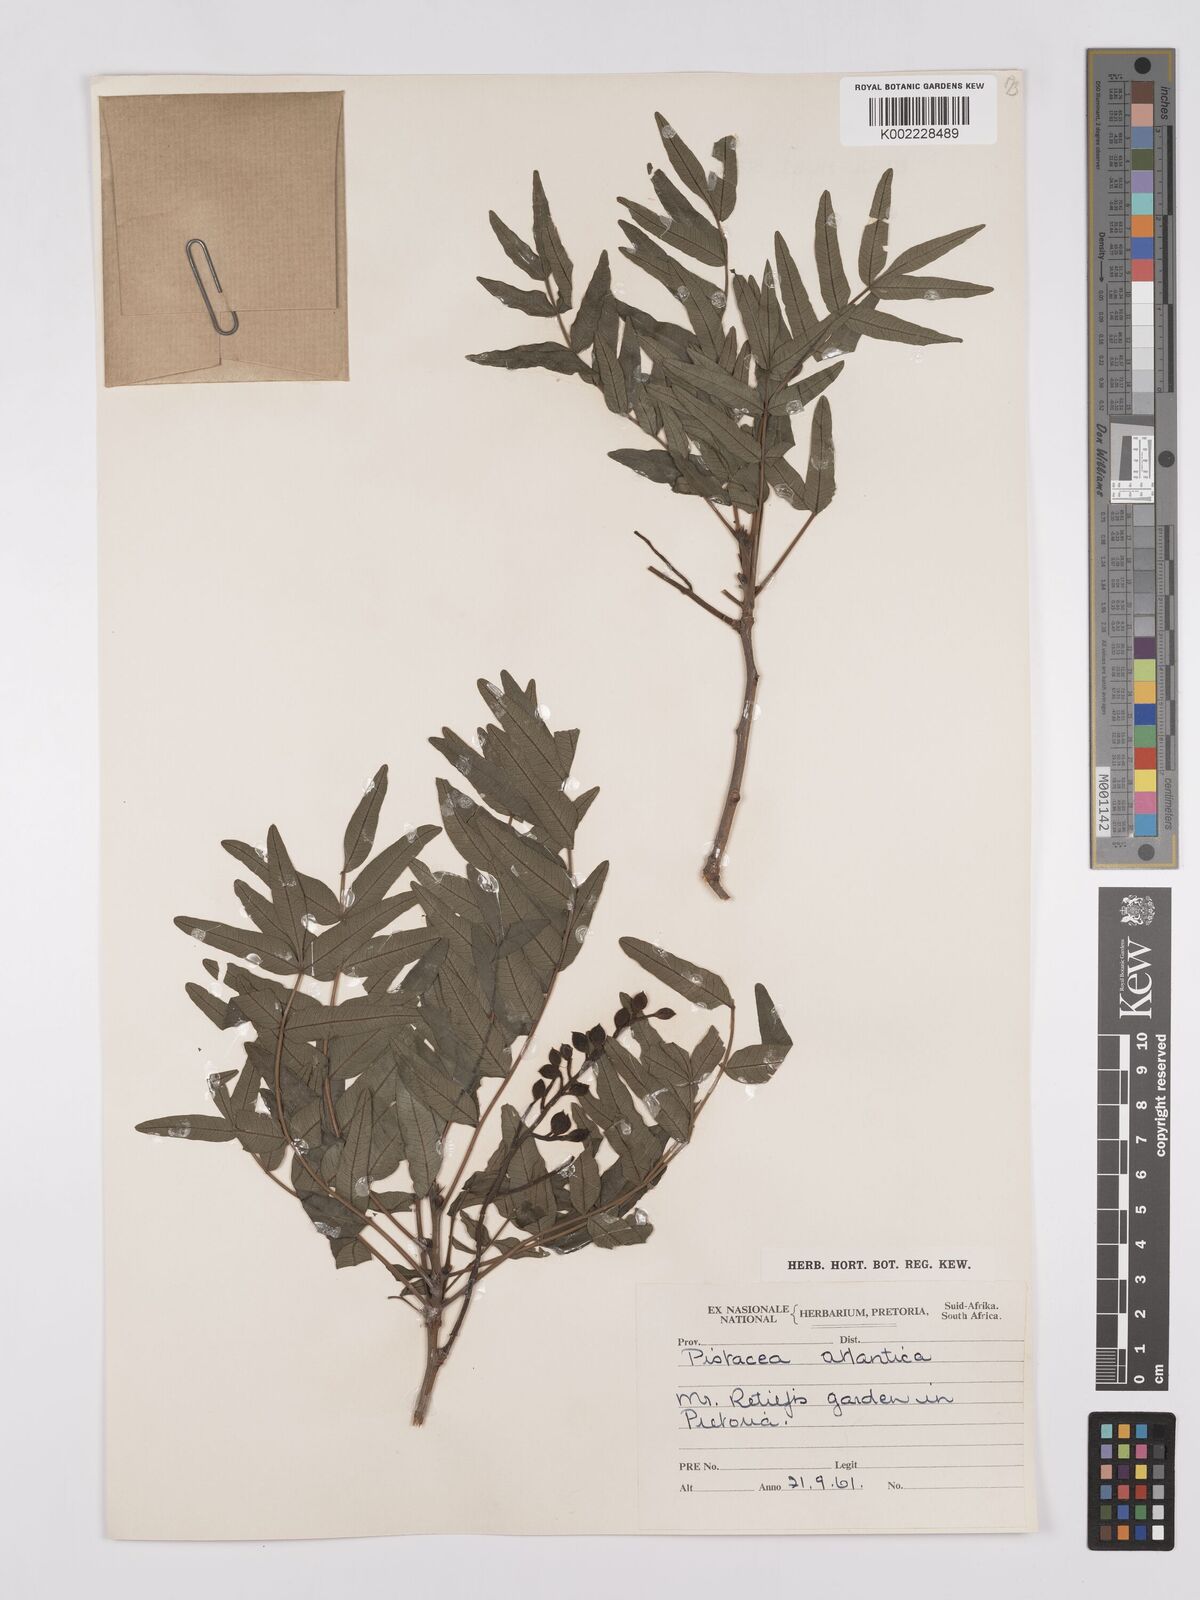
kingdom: Plantae
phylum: Tracheophyta
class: Magnoliopsida
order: Sapindales
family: Anacardiaceae
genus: Pistacia
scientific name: Pistacia atlantica
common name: Mt. atlas mastic tree
